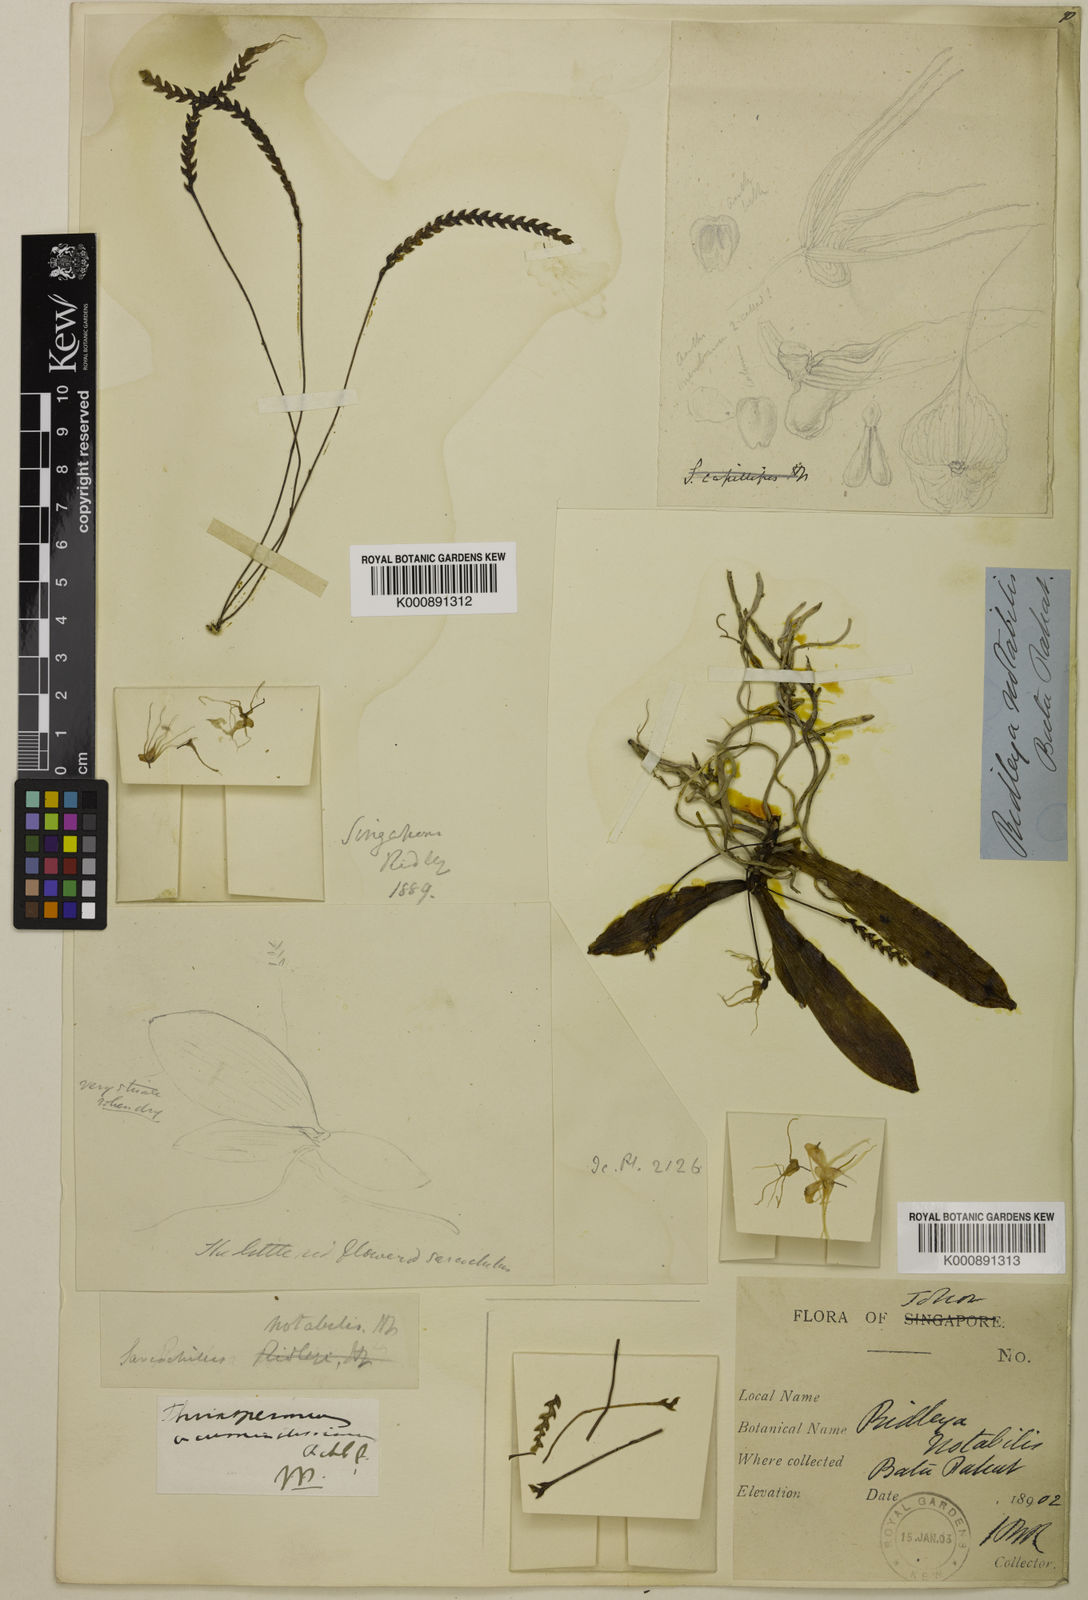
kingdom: Plantae
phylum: Tracheophyta
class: Liliopsida
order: Asparagales
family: Orchidaceae
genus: Thrixspermum
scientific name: Thrixspermum acuminatissimum
